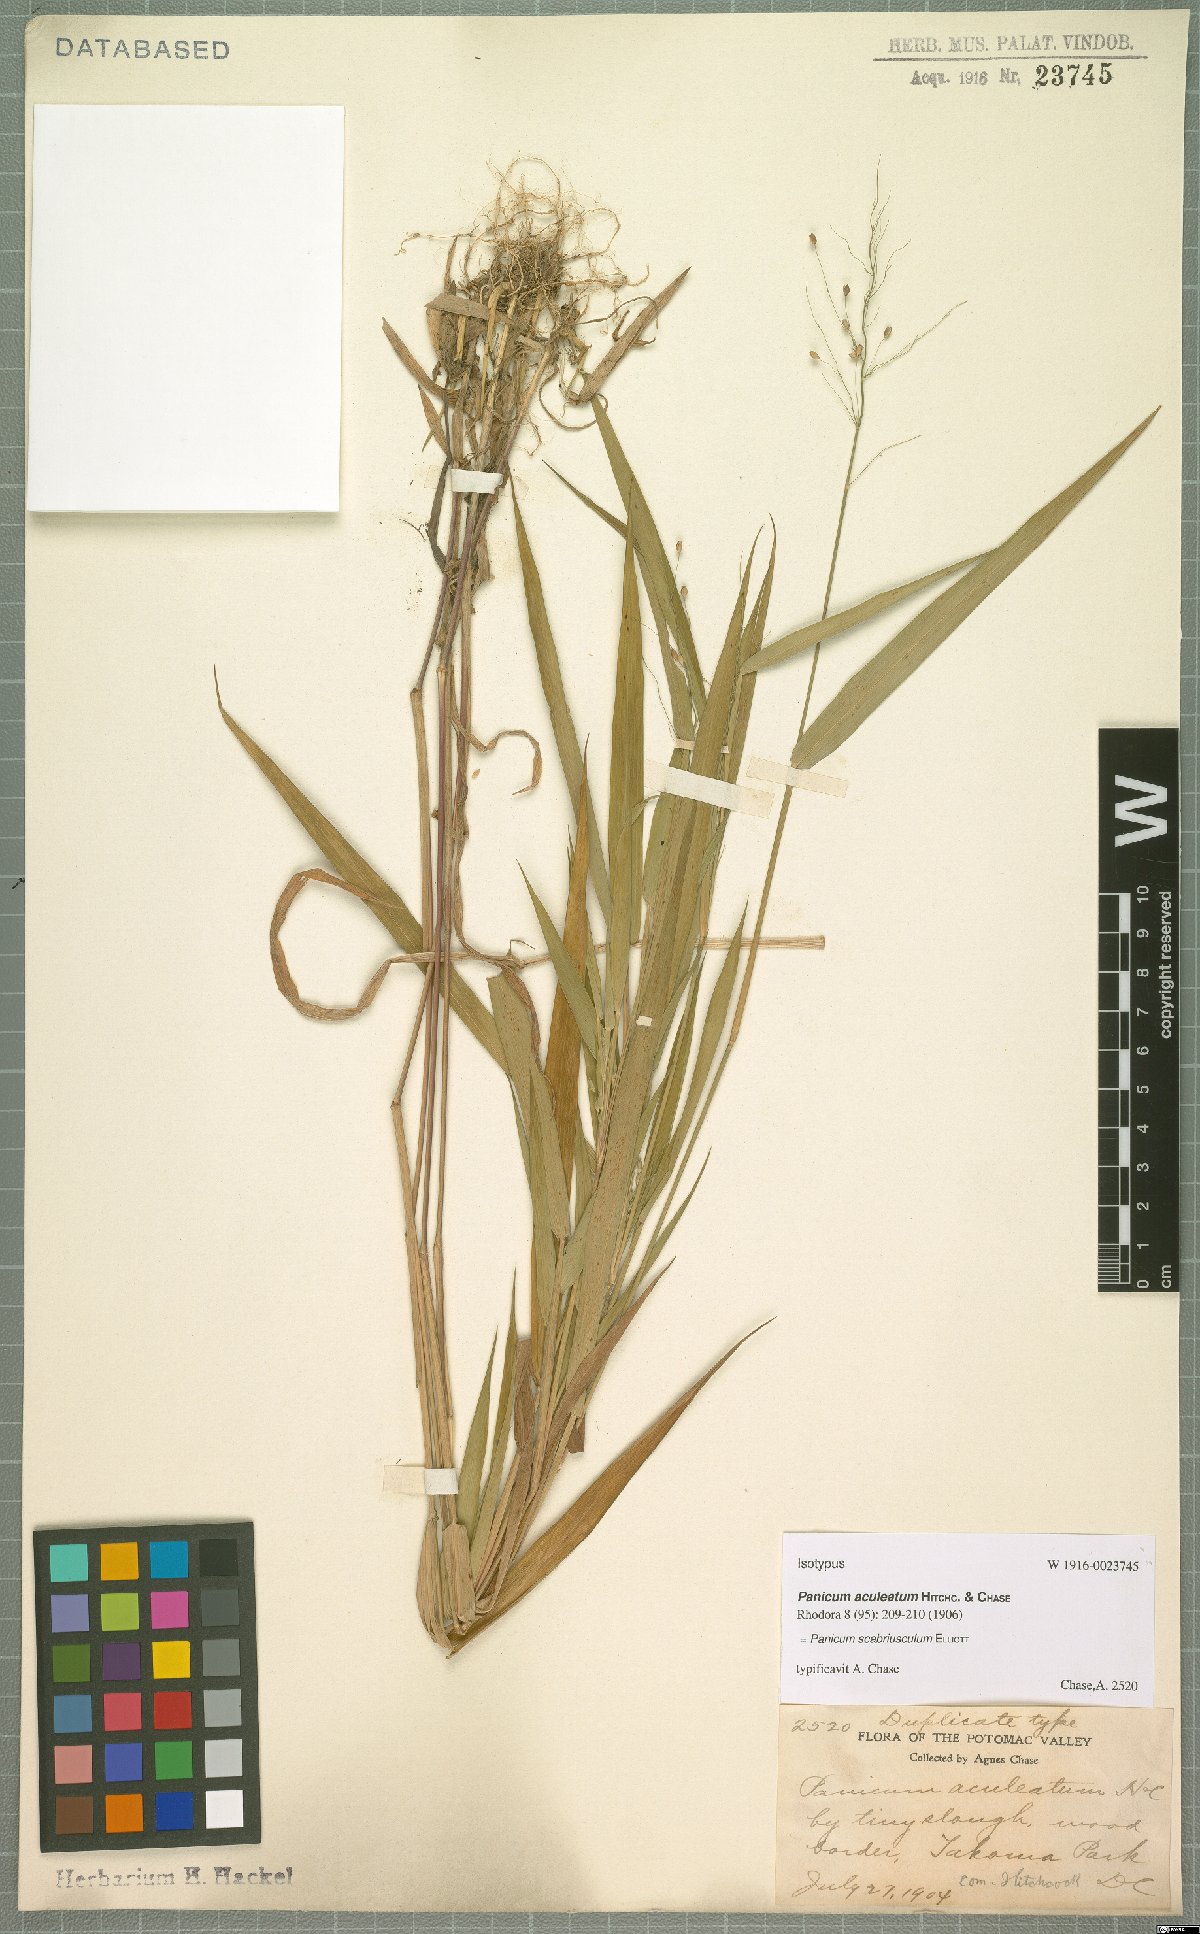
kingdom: Plantae
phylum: Tracheophyta
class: Liliopsida
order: Poales
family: Poaceae
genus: Dichanthelium
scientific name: Dichanthelium scabriusculum
